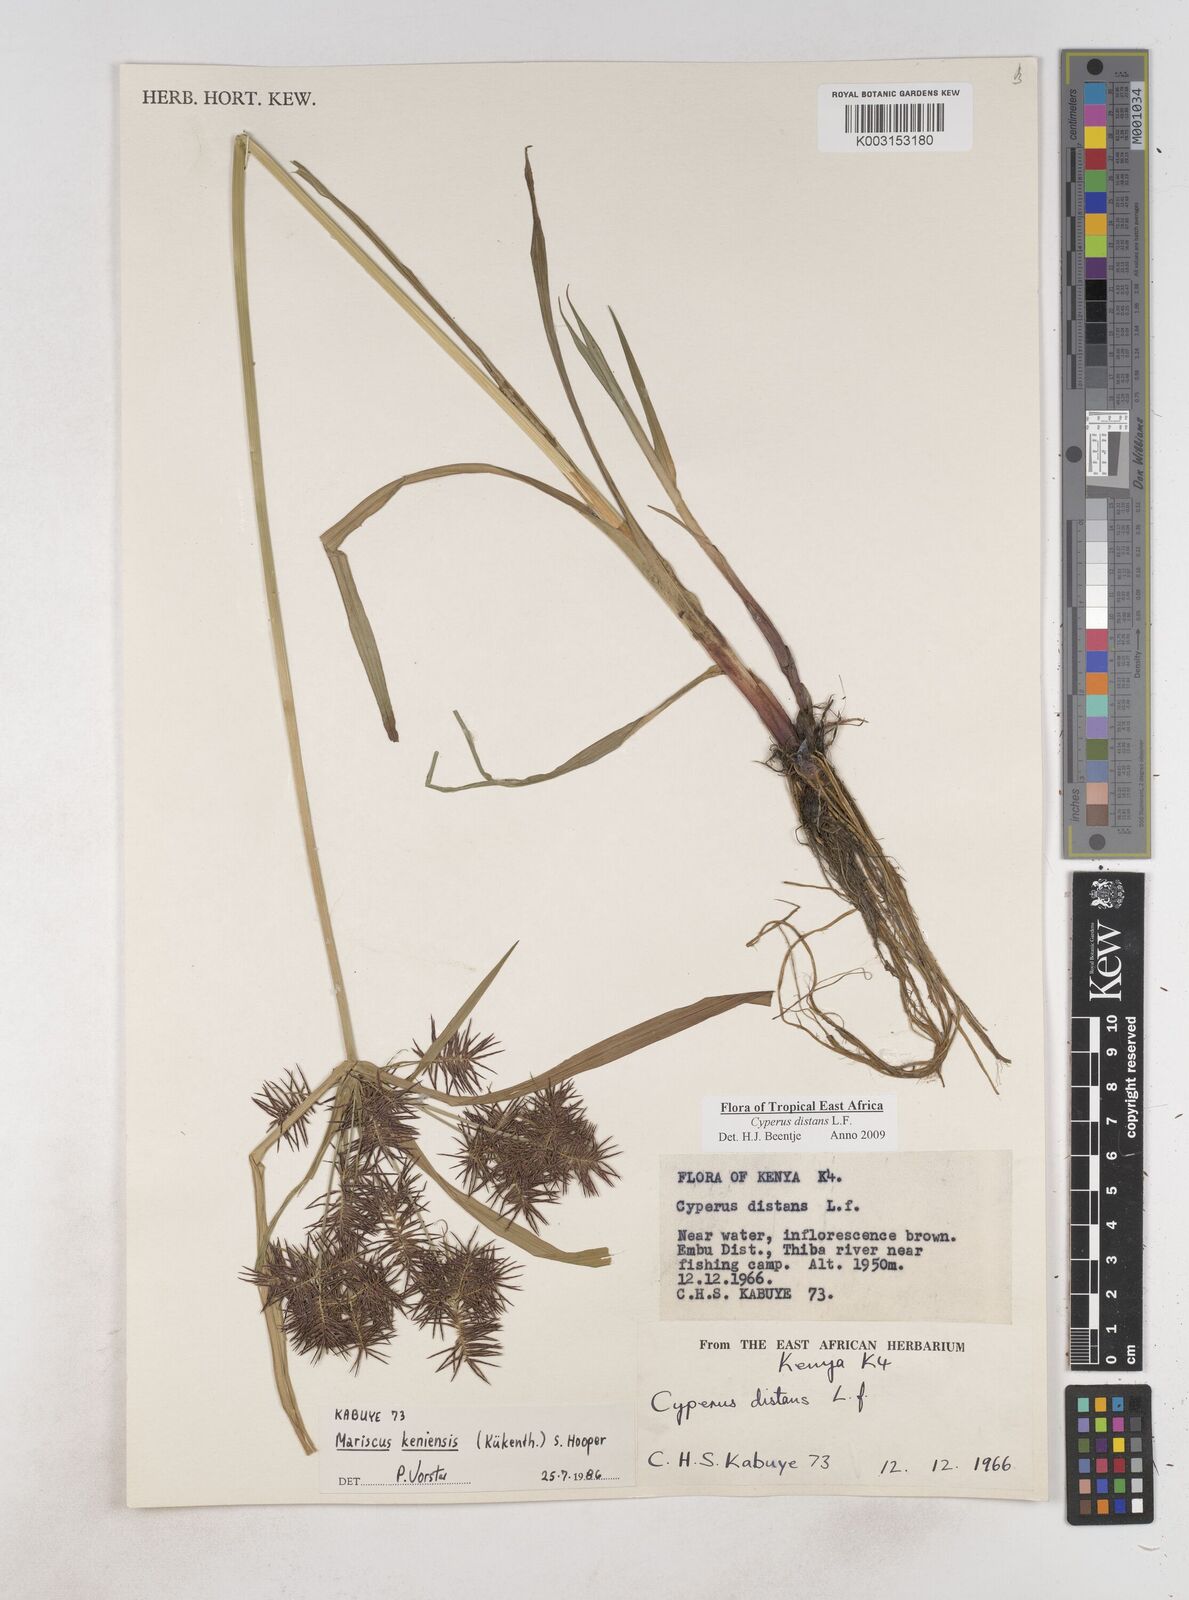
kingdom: Plantae
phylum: Tracheophyta
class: Liliopsida
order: Poales
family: Cyperaceae
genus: Cyperus
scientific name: Cyperus distans
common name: Slender cyperus
